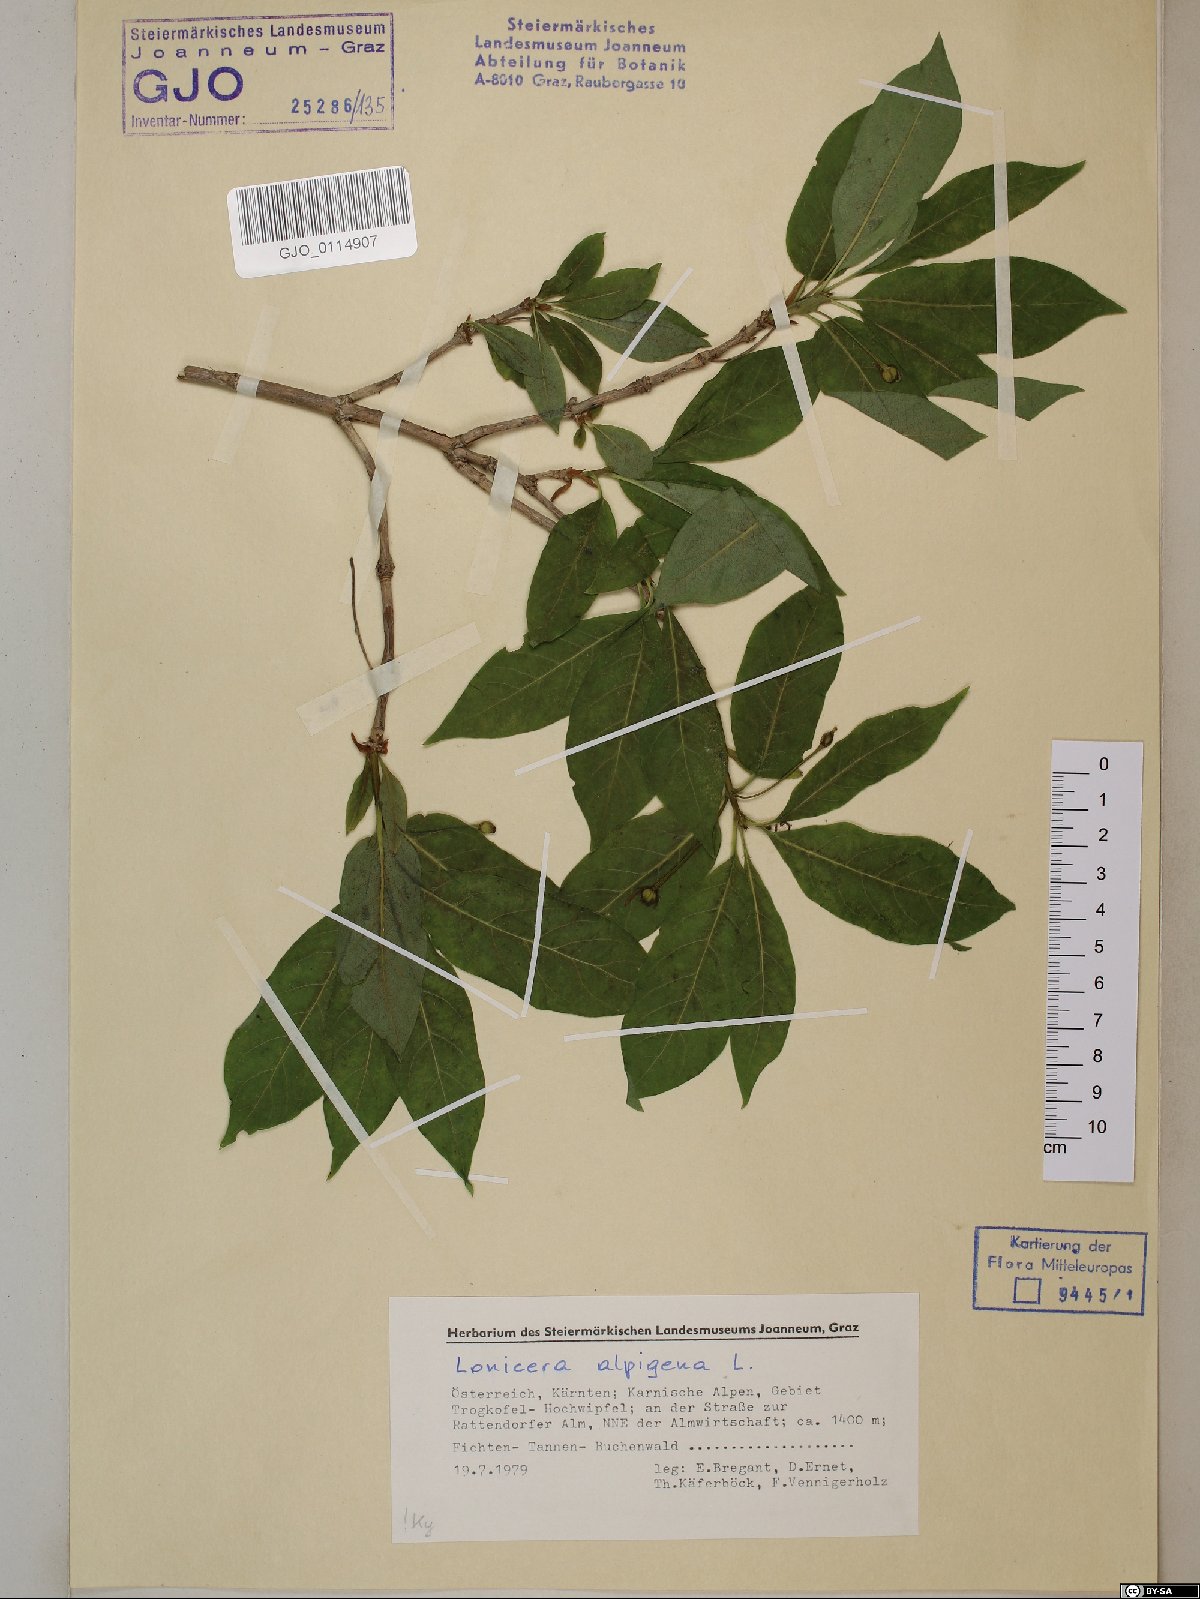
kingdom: Plantae
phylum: Tracheophyta
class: Magnoliopsida
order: Dipsacales
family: Caprifoliaceae
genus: Lonicera
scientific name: Lonicera alpigena
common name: Alpine honeysuckle
